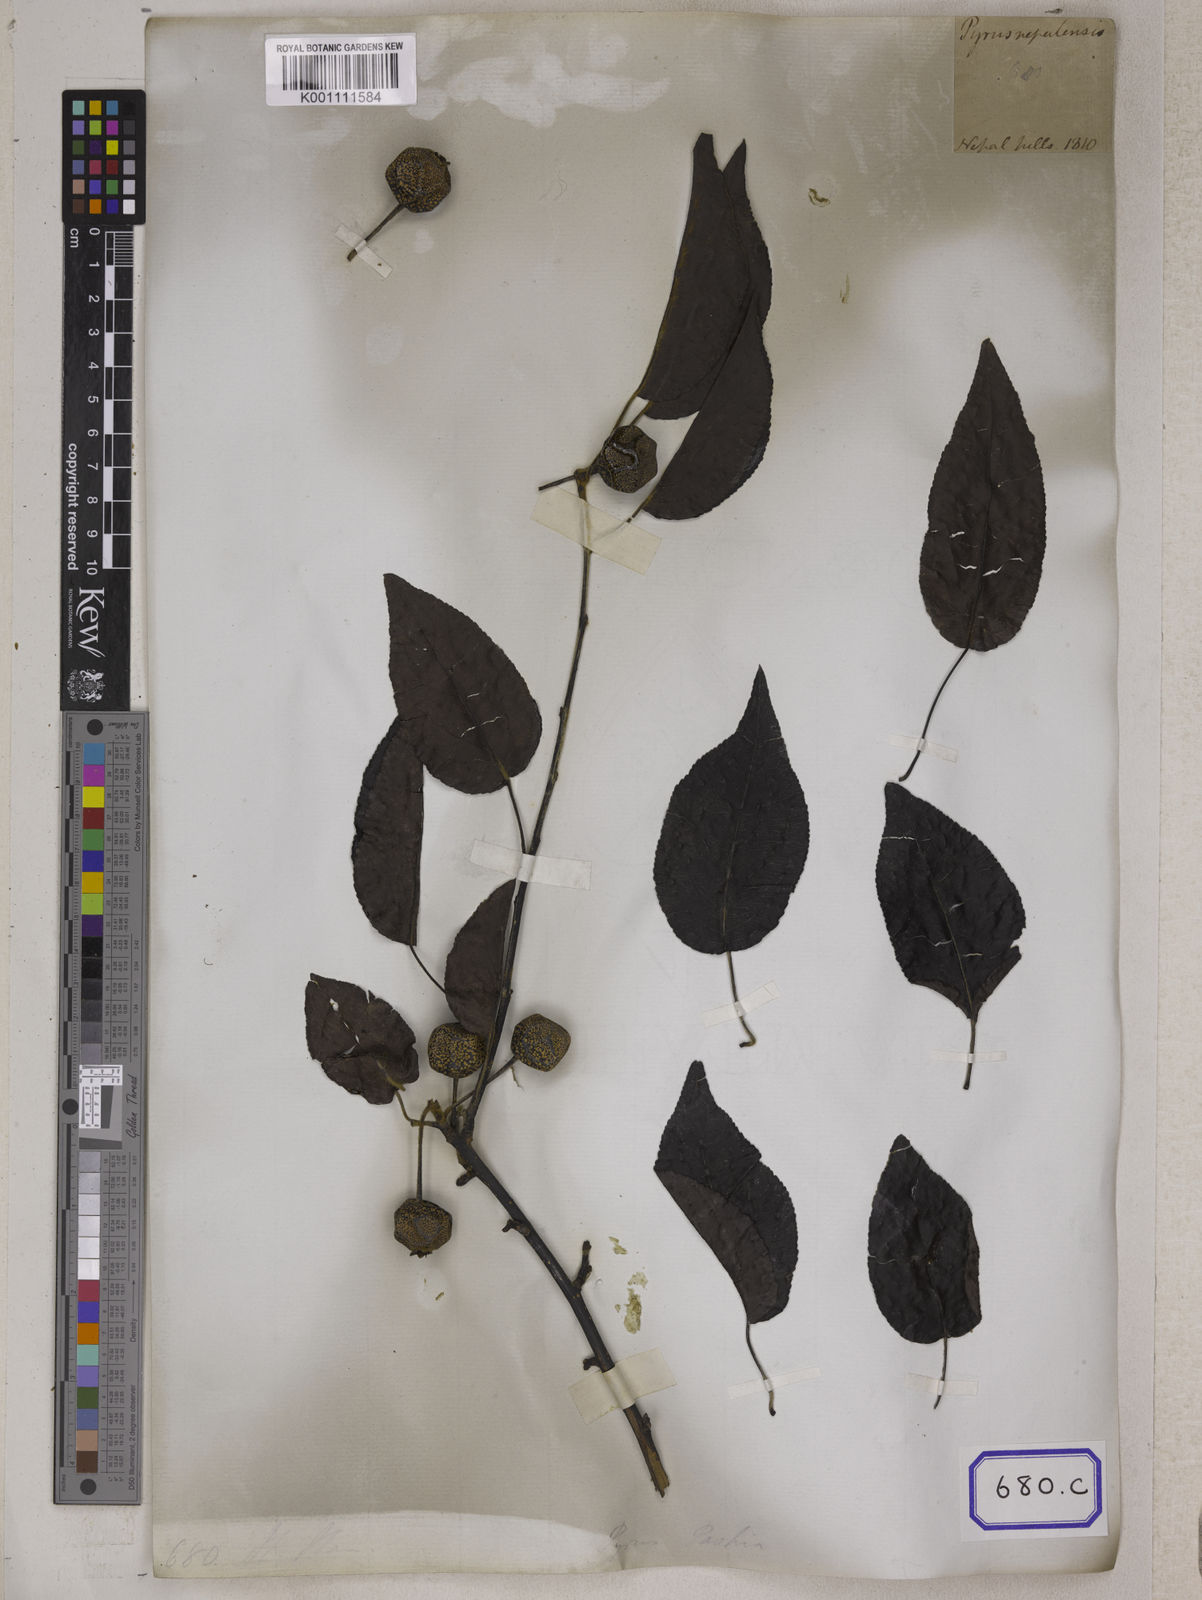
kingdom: Plantae
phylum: Tracheophyta
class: Magnoliopsida
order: Rosales
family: Rosaceae
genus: Pyrus
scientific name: Pyrus
